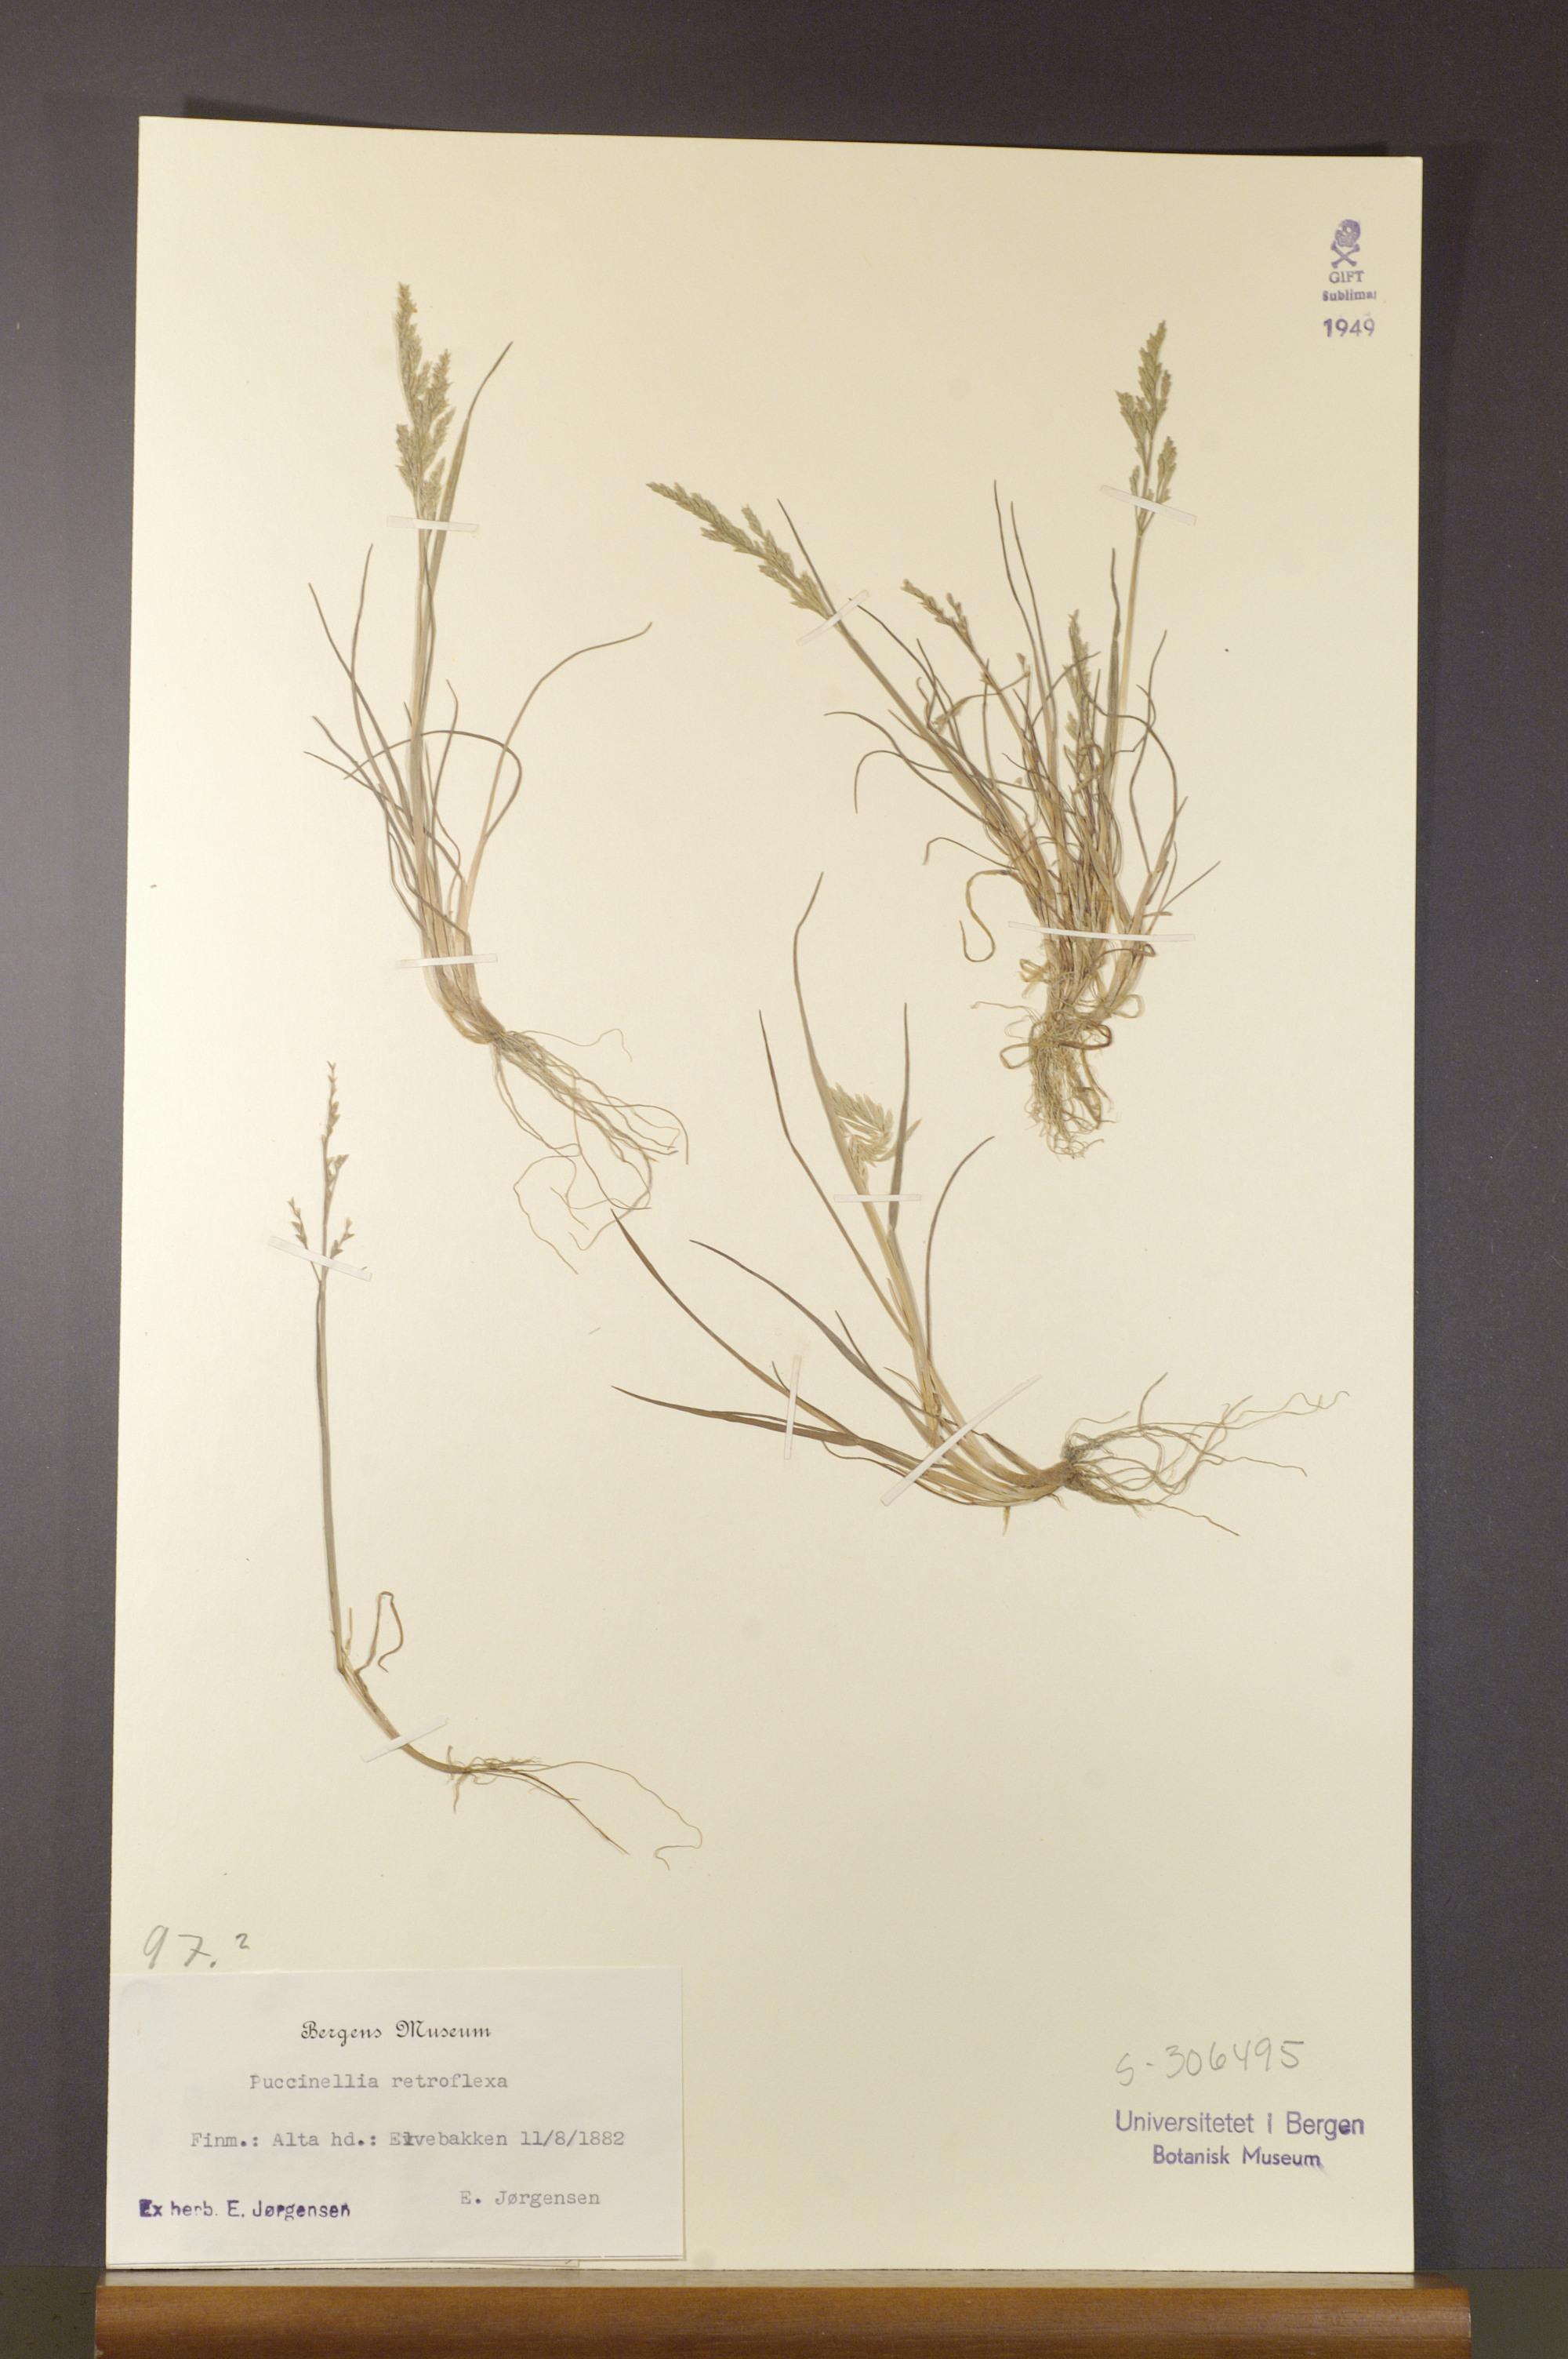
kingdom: Plantae
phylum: Tracheophyta
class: Liliopsida
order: Poales
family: Poaceae
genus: Puccinellia
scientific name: Puccinellia distans
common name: Weeping alkaligrass
